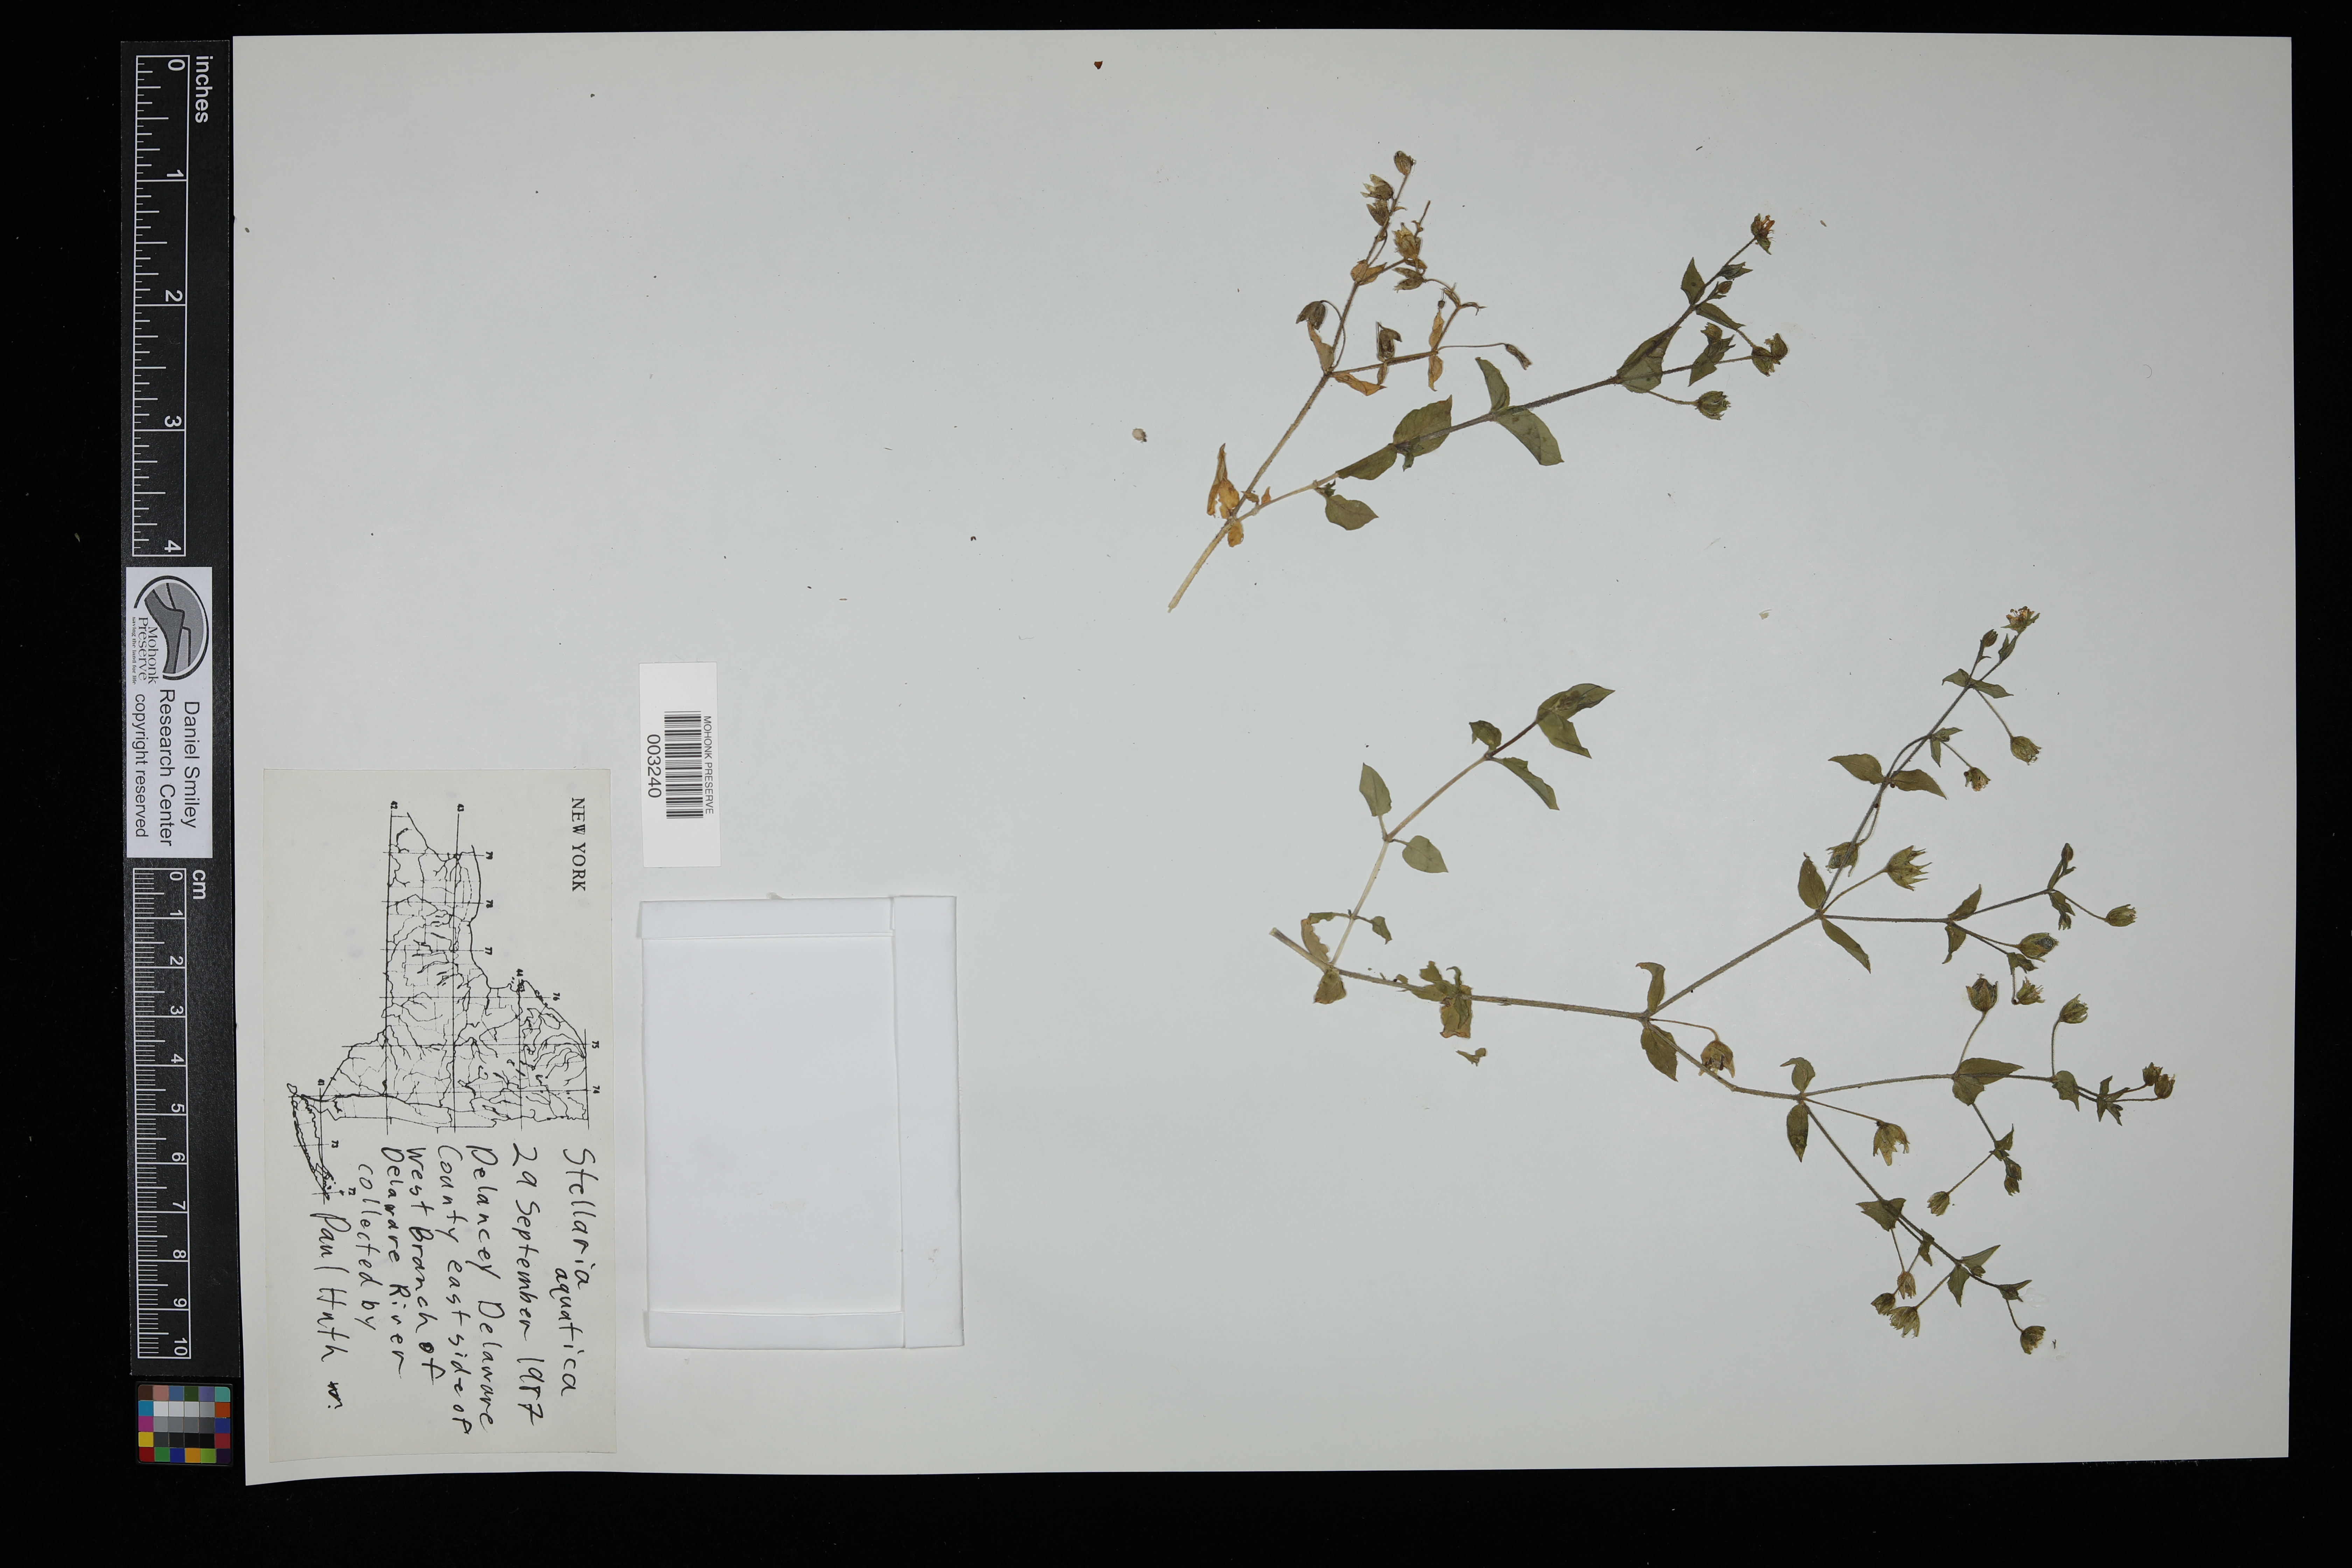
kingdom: Plantae
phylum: Tracheophyta
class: Magnoliopsida
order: Caryophyllales
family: Caryophyllaceae
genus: Stellaria
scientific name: Stellaria aquatica
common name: Water chickweed
